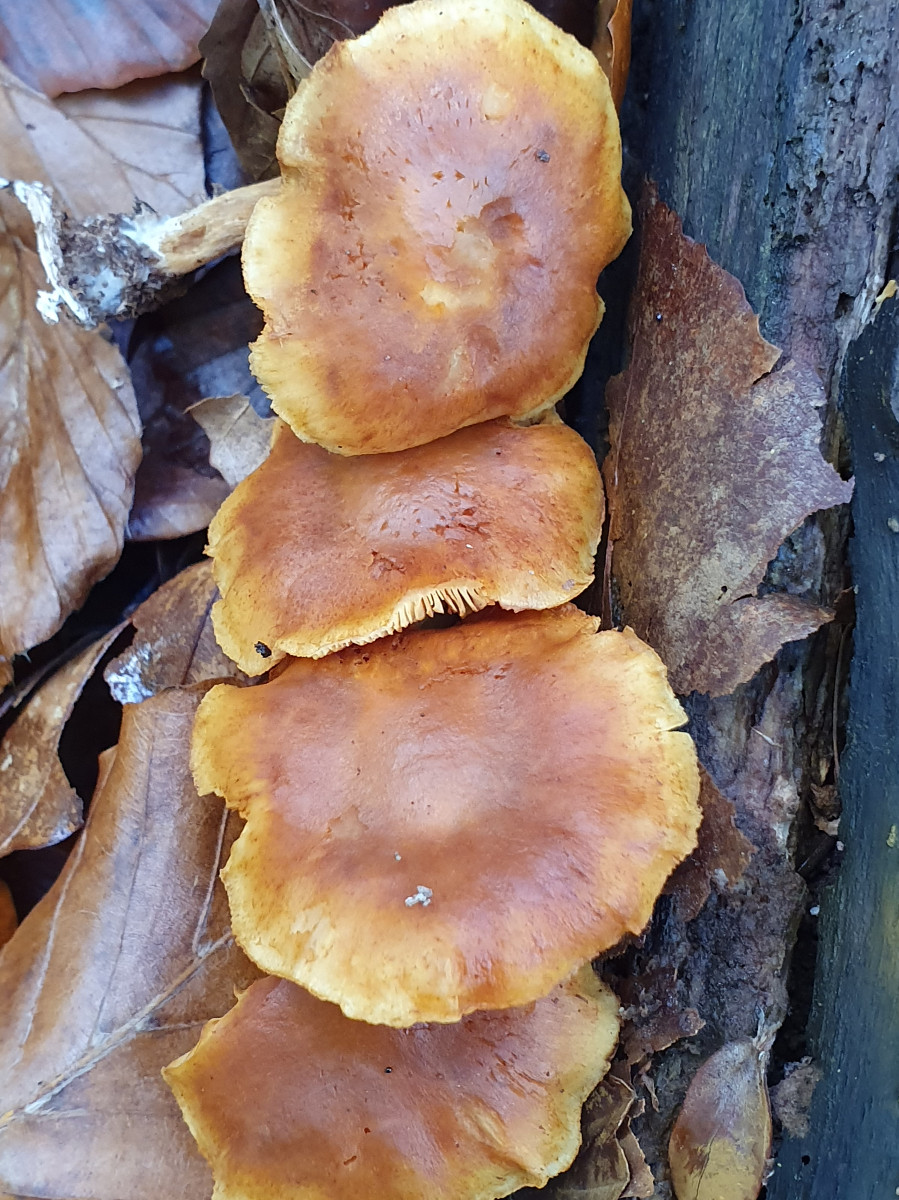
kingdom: Fungi
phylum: Basidiomycota
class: Agaricomycetes
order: Agaricales
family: Hymenogastraceae
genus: Gymnopilus
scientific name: Gymnopilus penetrans
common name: plettet flammehat
